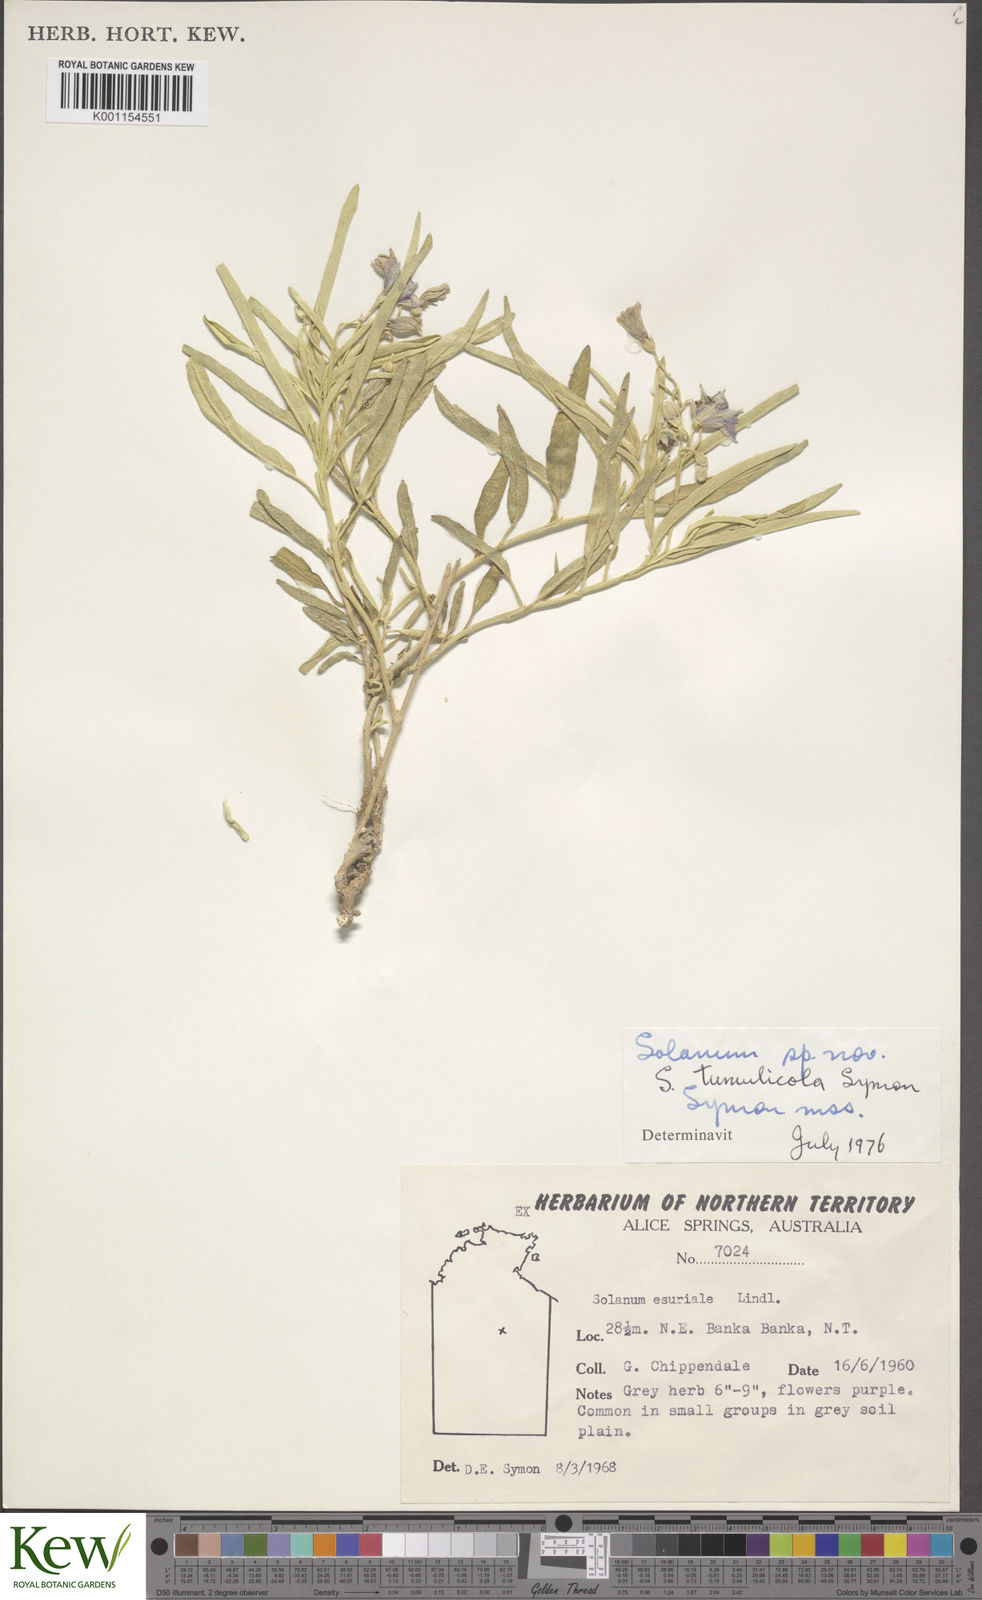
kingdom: Plantae
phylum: Tracheophyta
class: Magnoliopsida
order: Solanales
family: Solanaceae
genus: Solanum
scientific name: Solanum tumulicola
